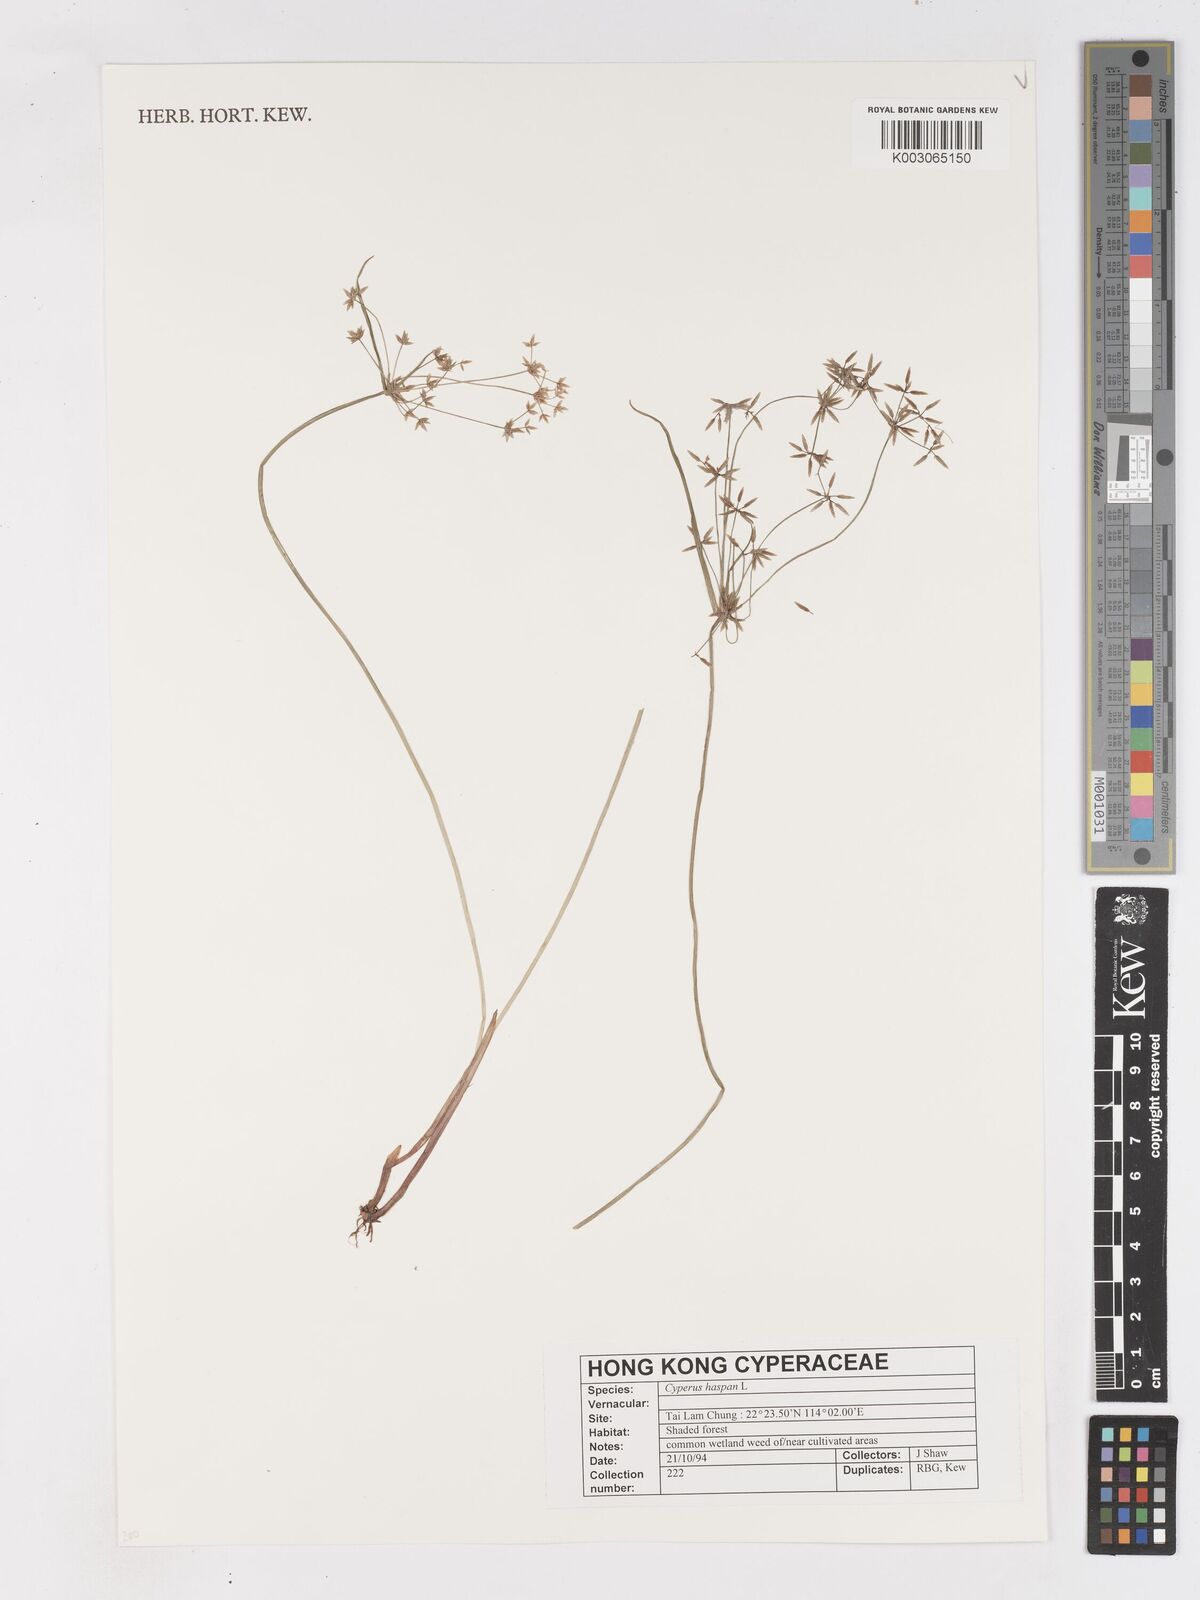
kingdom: Plantae
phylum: Tracheophyta
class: Liliopsida
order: Poales
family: Cyperaceae
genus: Cyperus
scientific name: Cyperus haspan
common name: Haspan flatsedge
